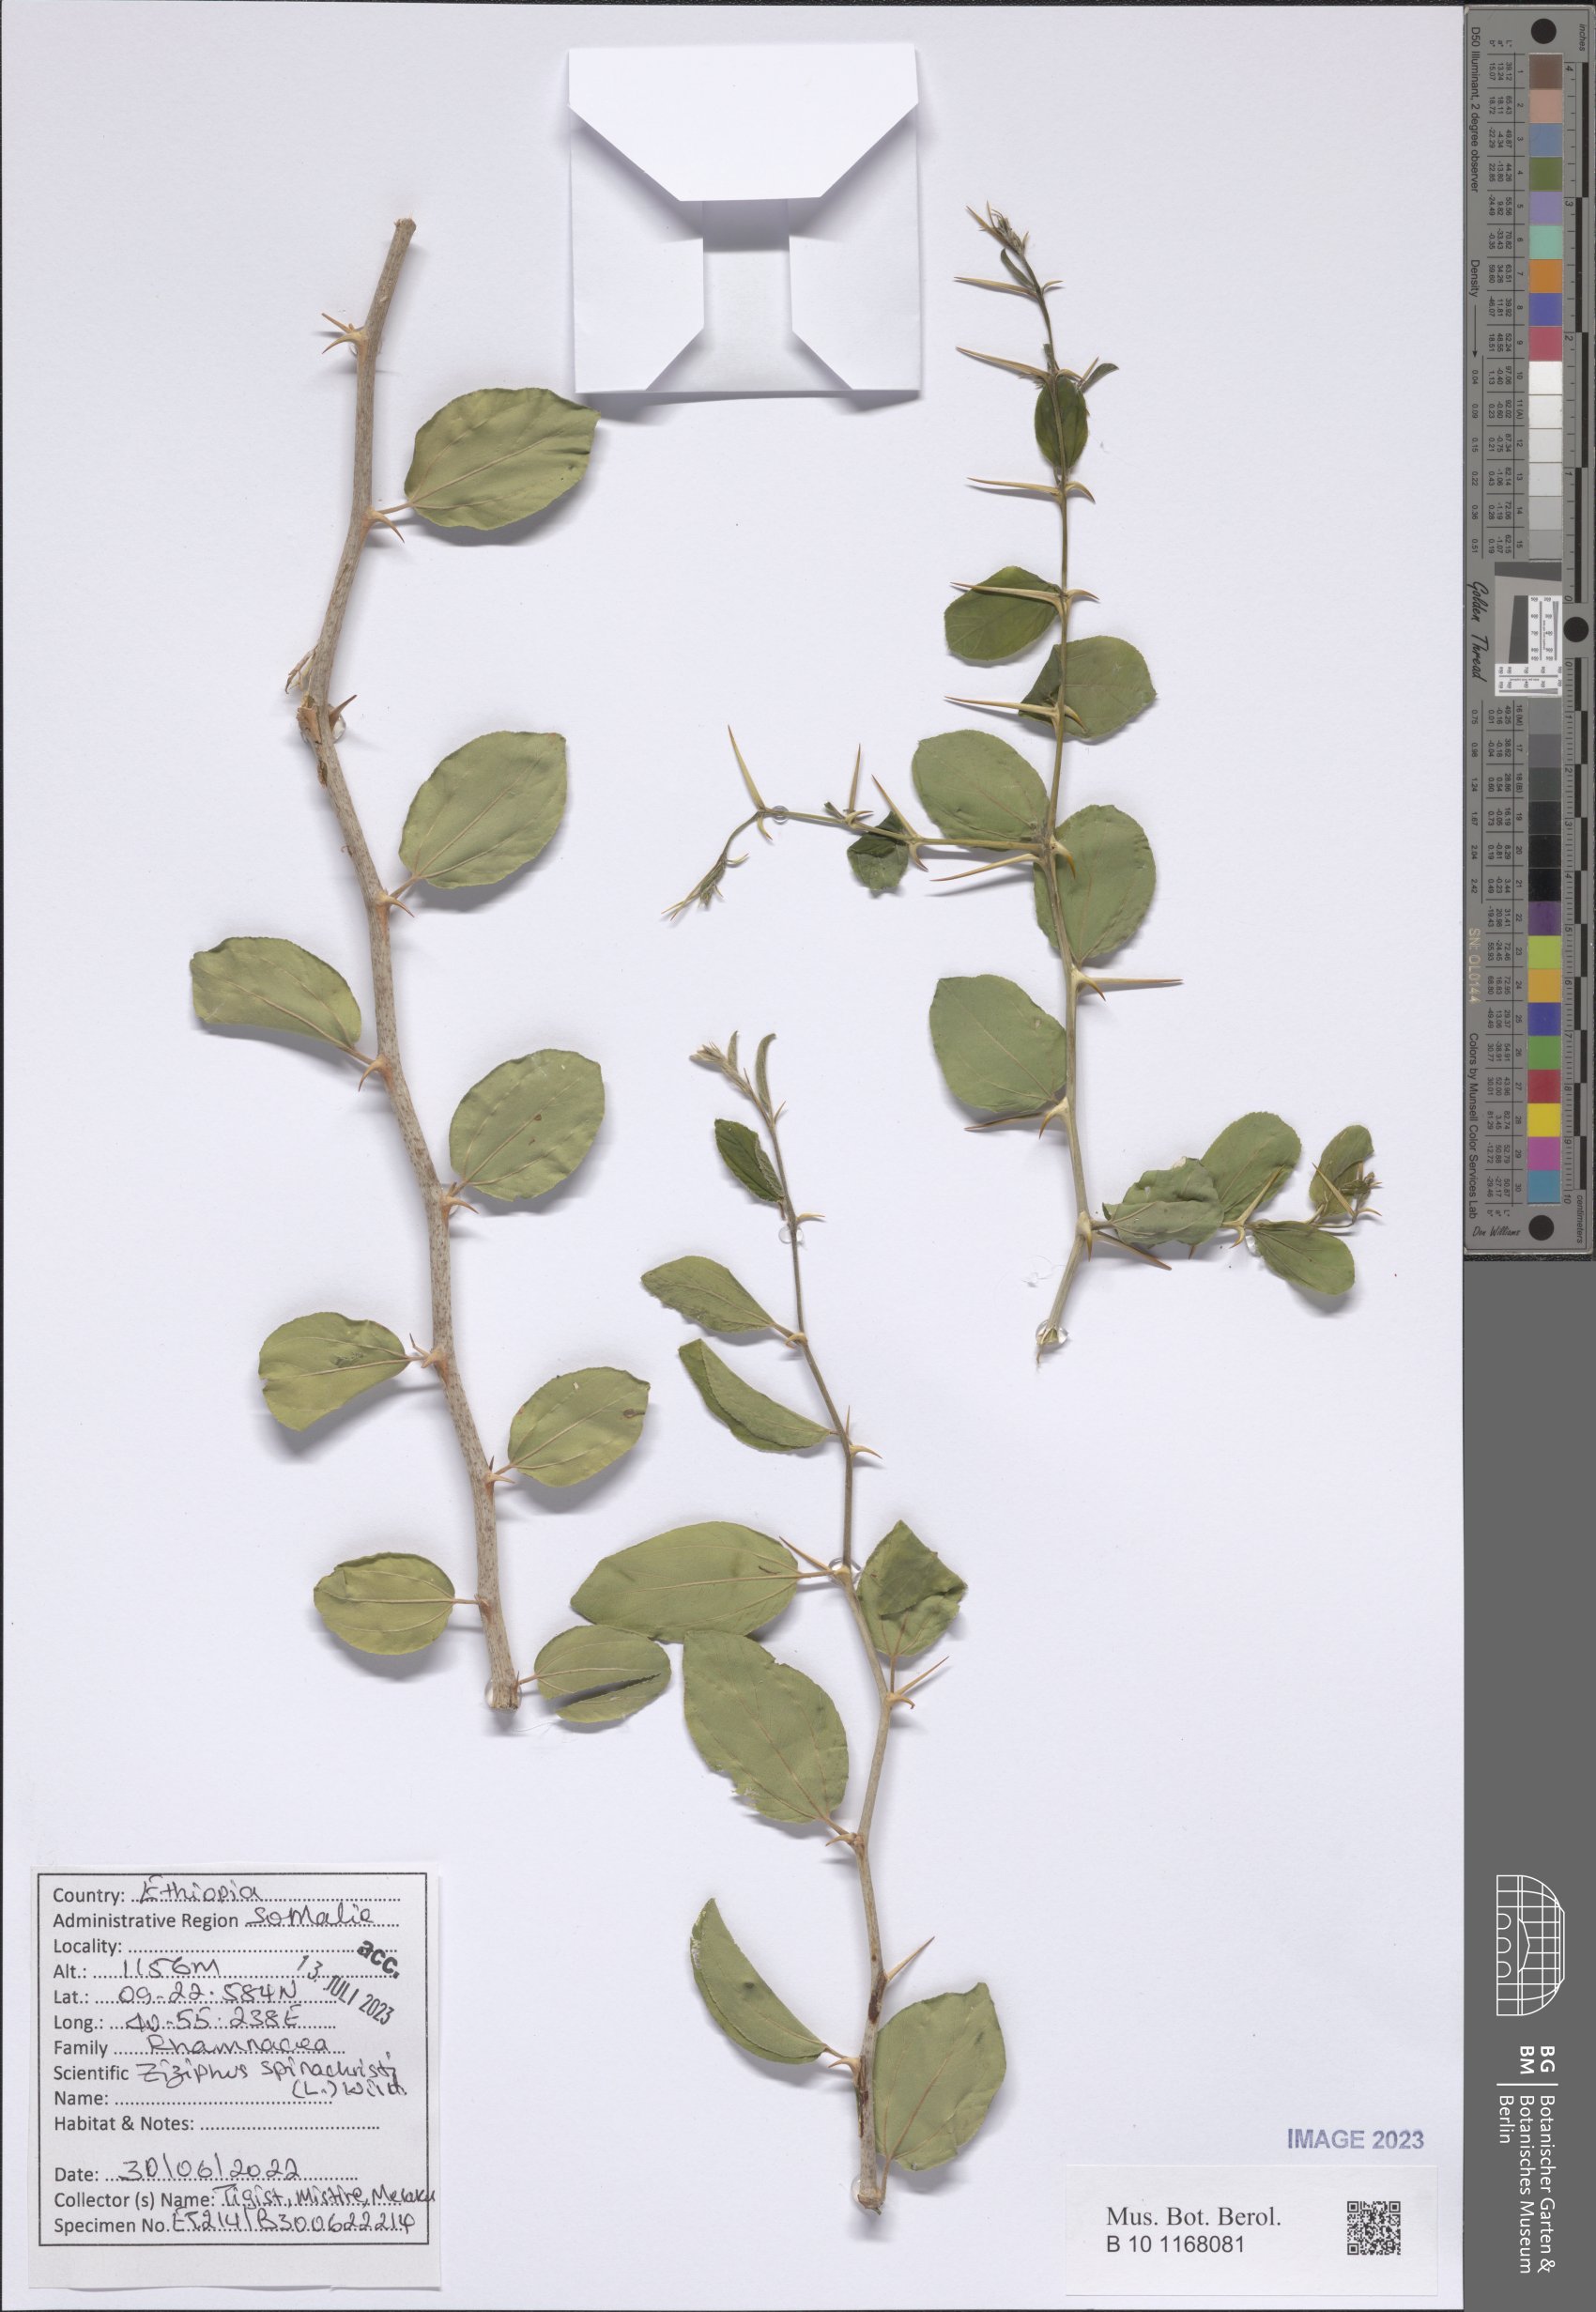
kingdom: Plantae
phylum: Tracheophyta
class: Magnoliopsida
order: Rosales
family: Rhamnaceae
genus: Ziziphus
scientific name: Ziziphus spina-christi
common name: Syrian christ-thorn
